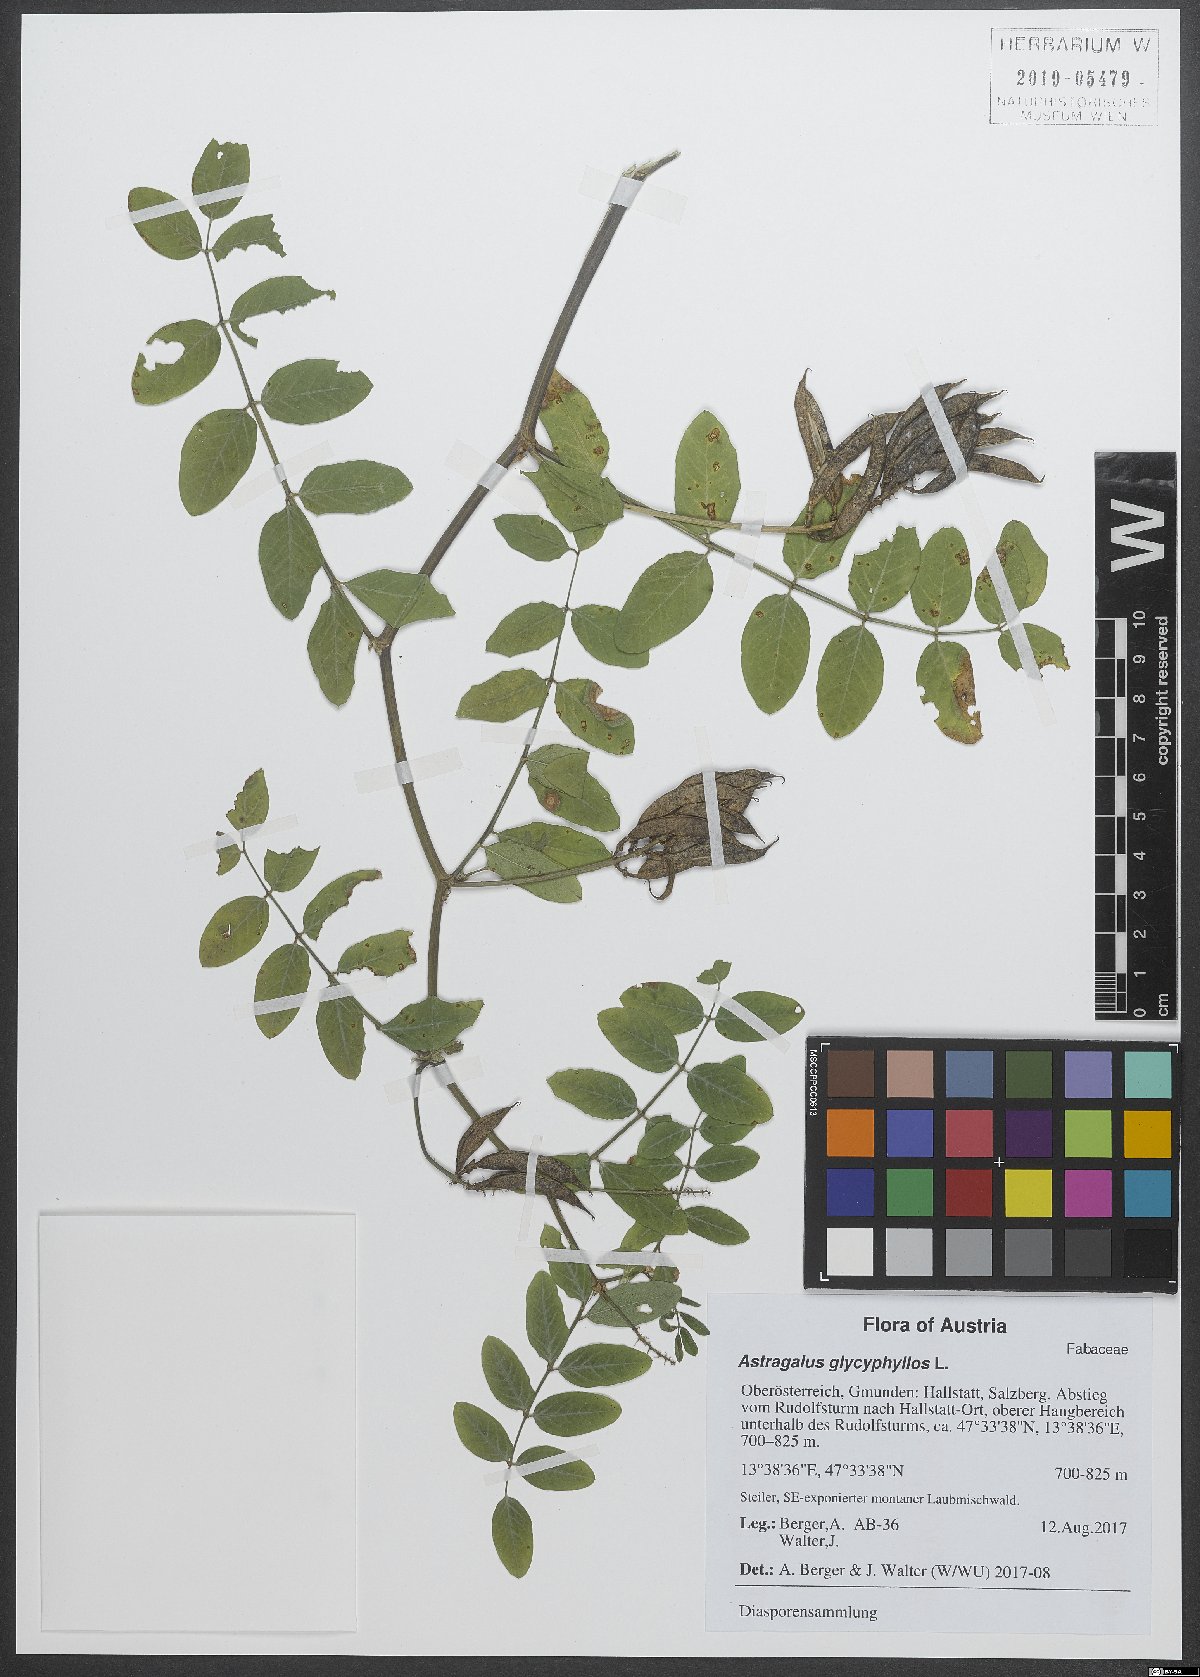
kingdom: Plantae
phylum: Tracheophyta
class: Magnoliopsida
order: Fabales
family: Fabaceae
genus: Astragalus
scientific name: Astragalus glycyphyllos
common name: Wild liquorice
